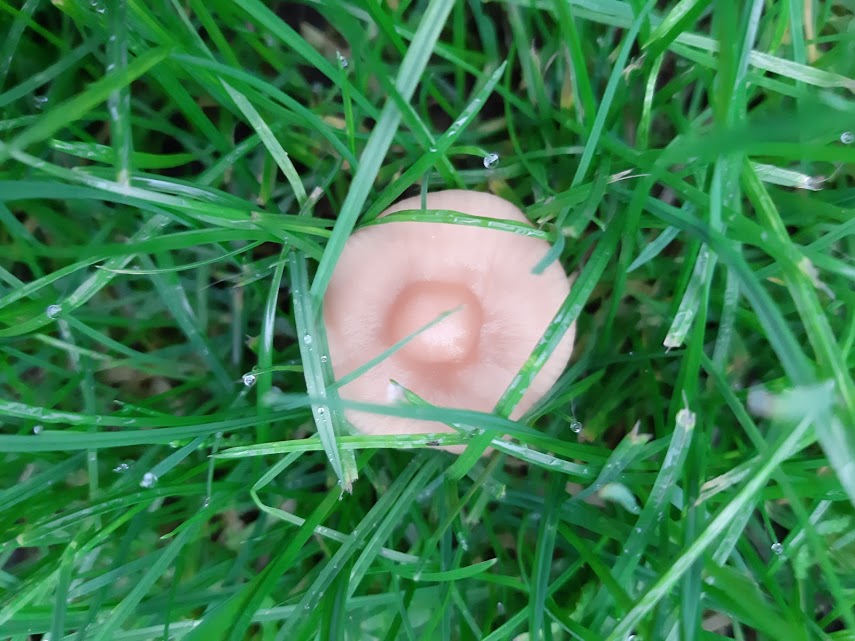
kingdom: Fungi
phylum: Basidiomycota
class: Agaricomycetes
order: Agaricales
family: Marasmiaceae
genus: Marasmius
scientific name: Marasmius oreades
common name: elledans-bruskhat
